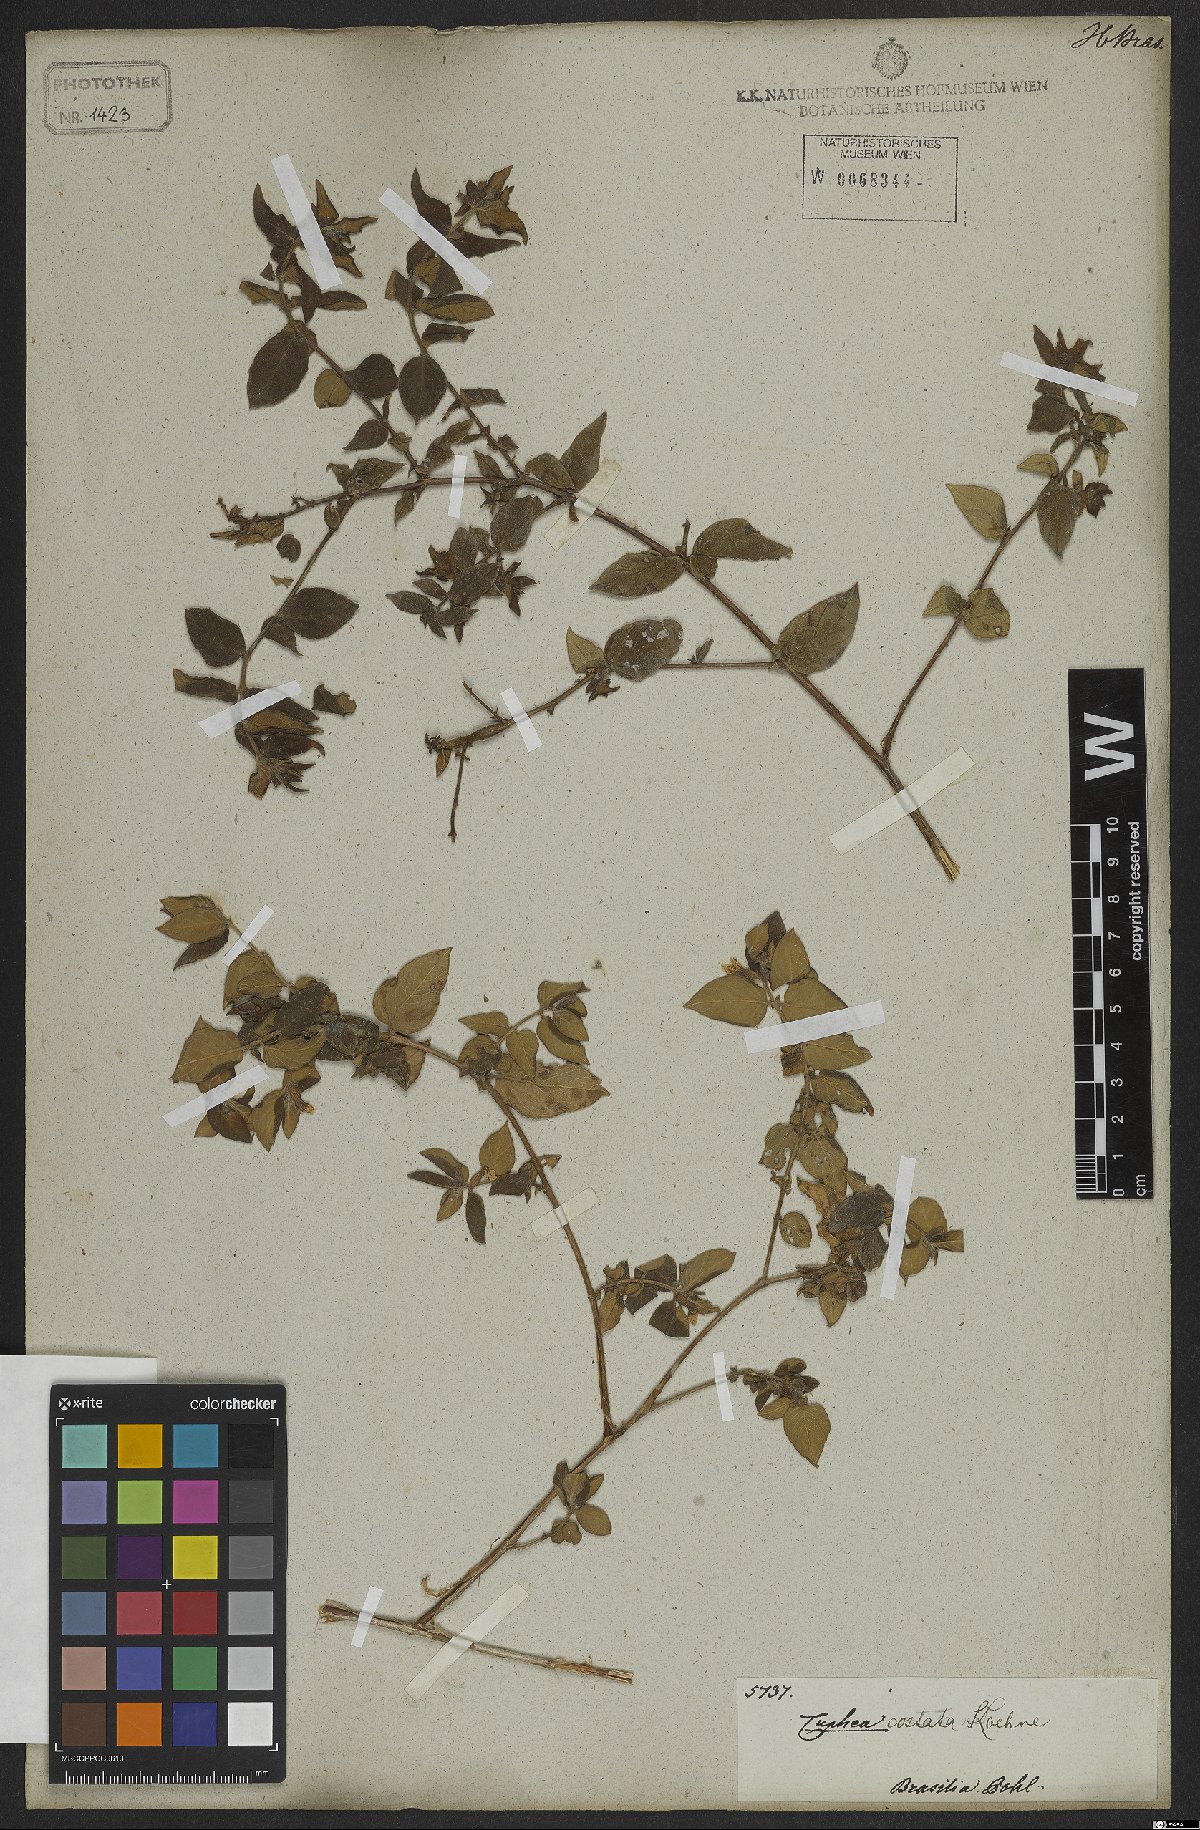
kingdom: Plantae
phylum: Tracheophyta
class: Magnoliopsida
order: Myrtales
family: Lythraceae
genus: Cuphea
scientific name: Cuphea sessiliflora
